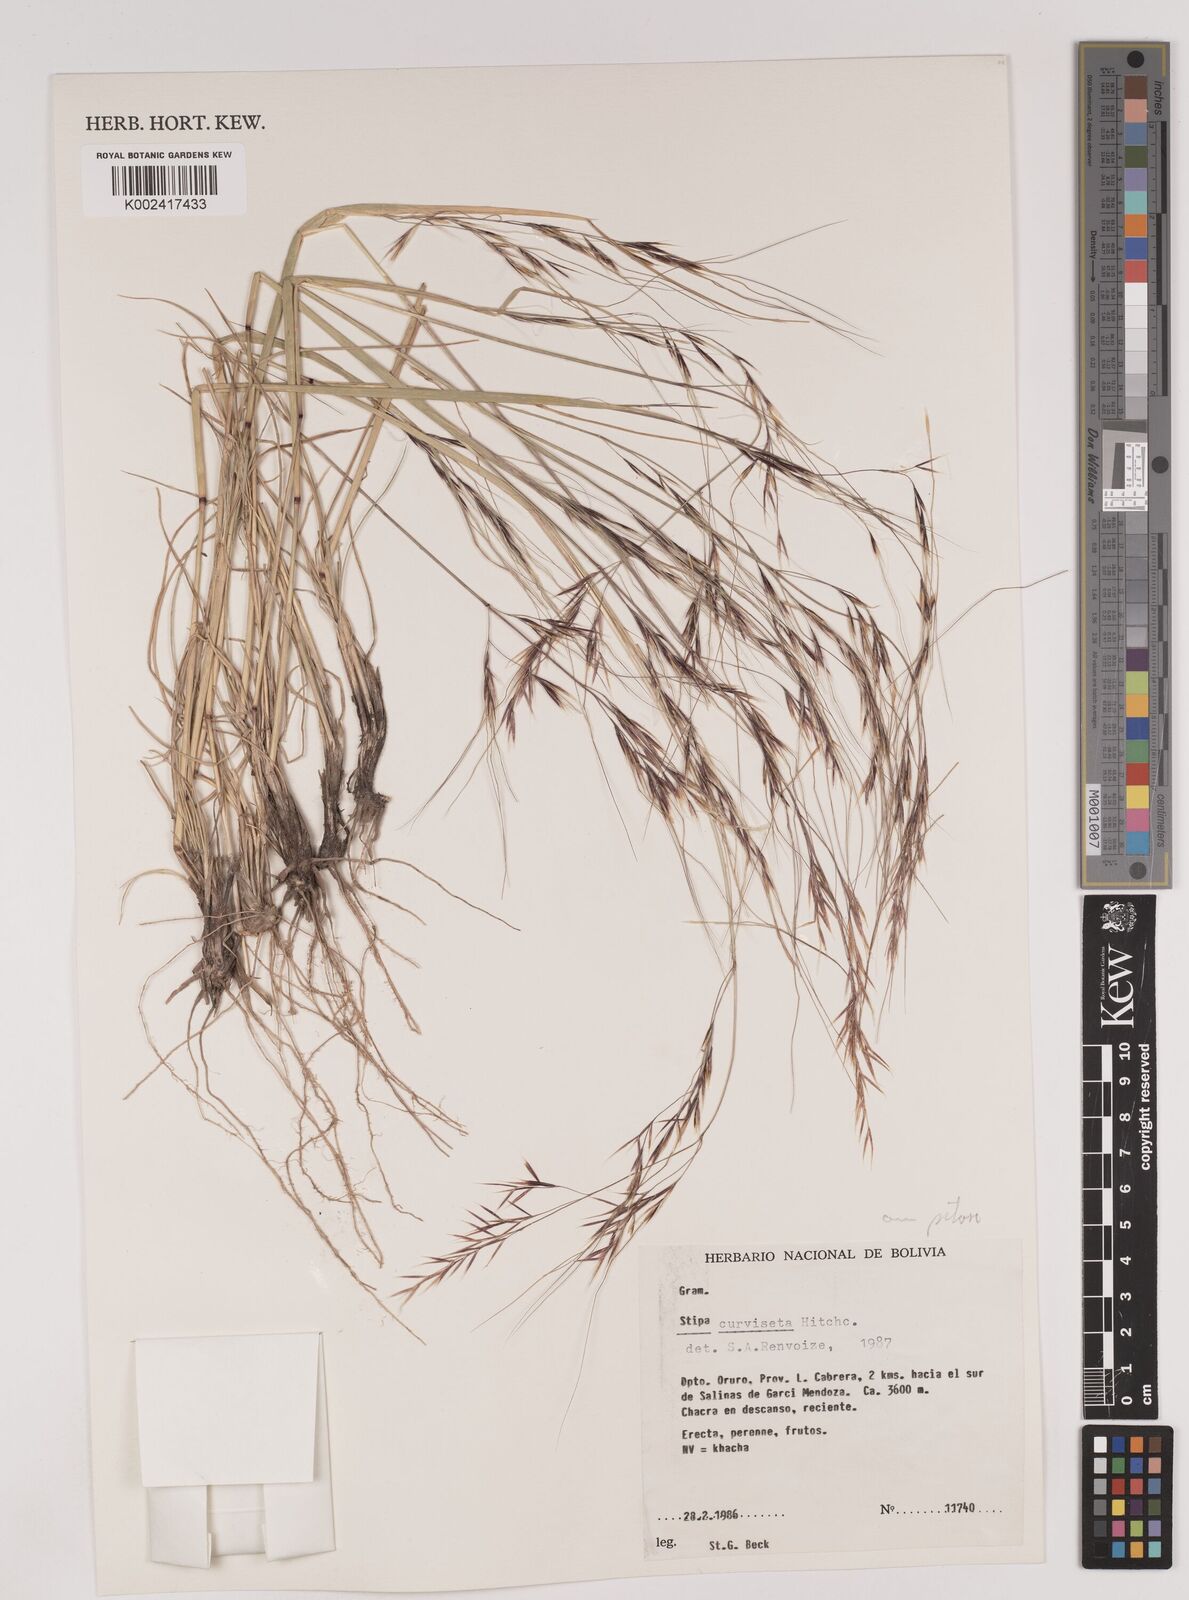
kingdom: Plantae
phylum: Tracheophyta
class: Liliopsida
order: Poales
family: Poaceae
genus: Nassella
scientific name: Nassella arcuata
